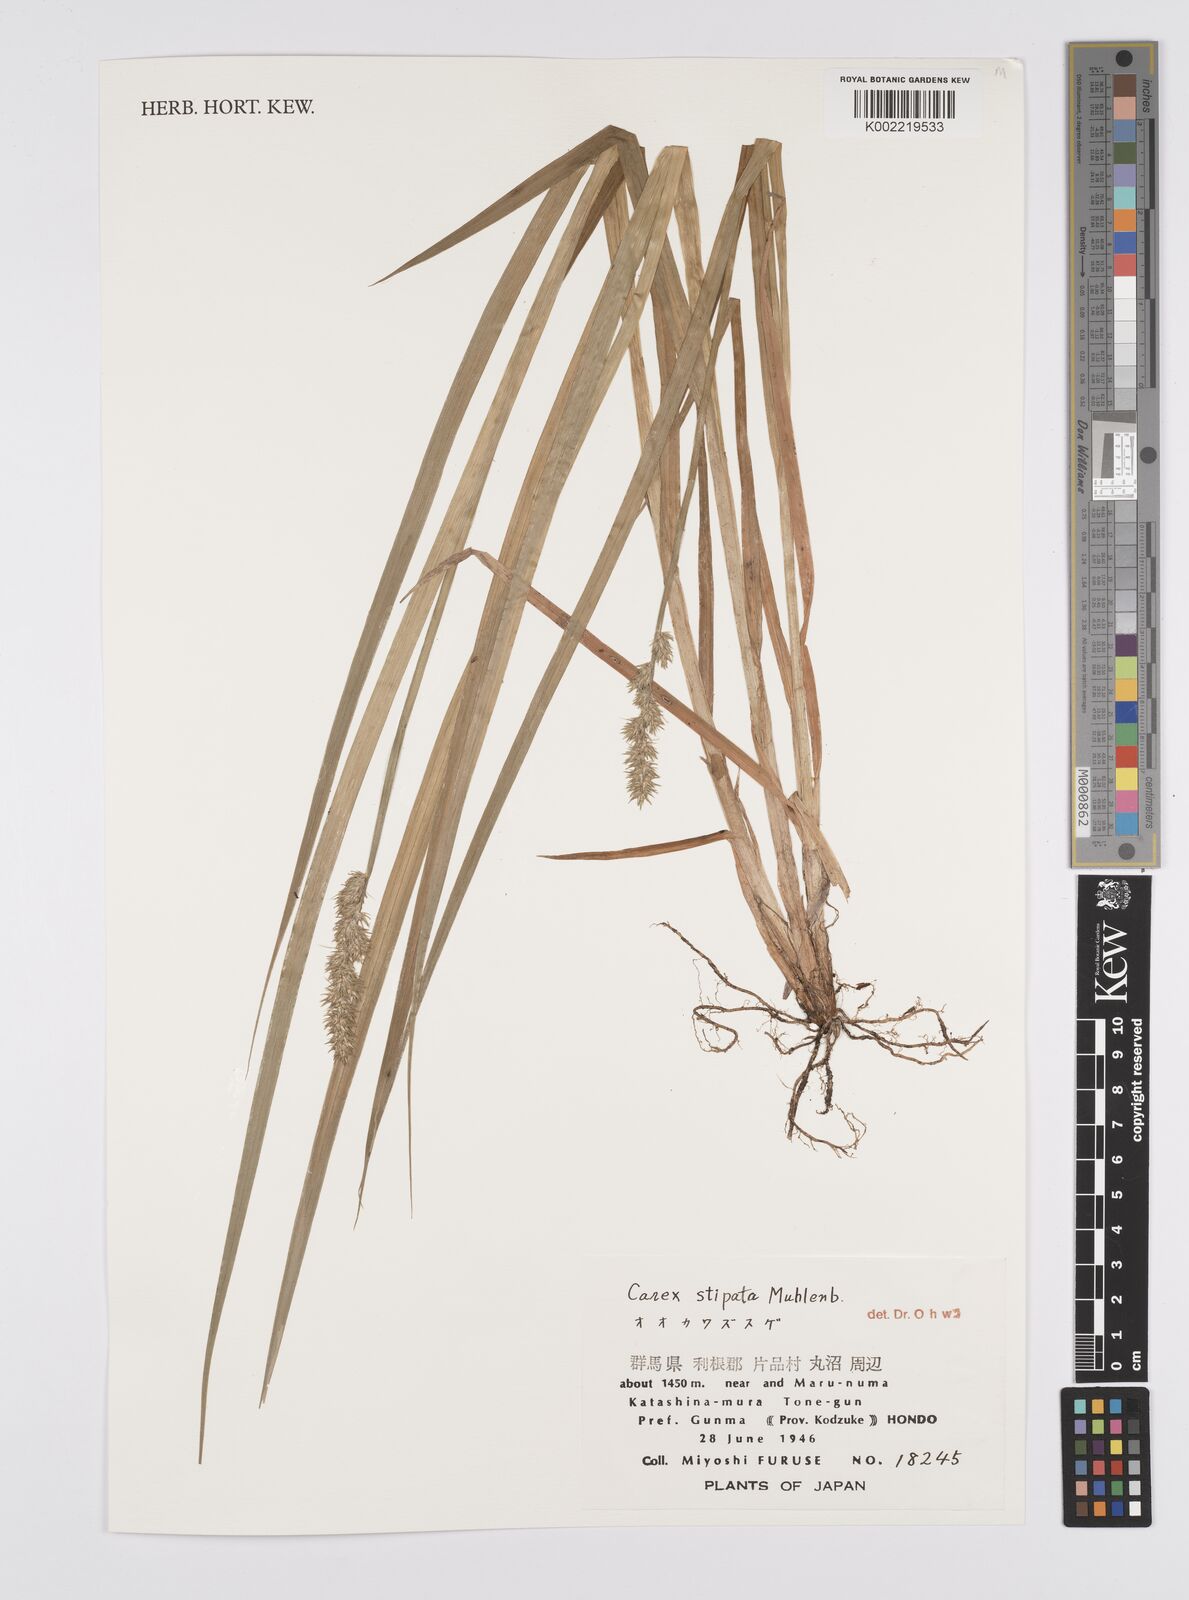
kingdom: Plantae
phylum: Tracheophyta
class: Liliopsida
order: Poales
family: Cyperaceae
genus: Carex
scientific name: Carex stipata
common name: Awl-fruited sedge
